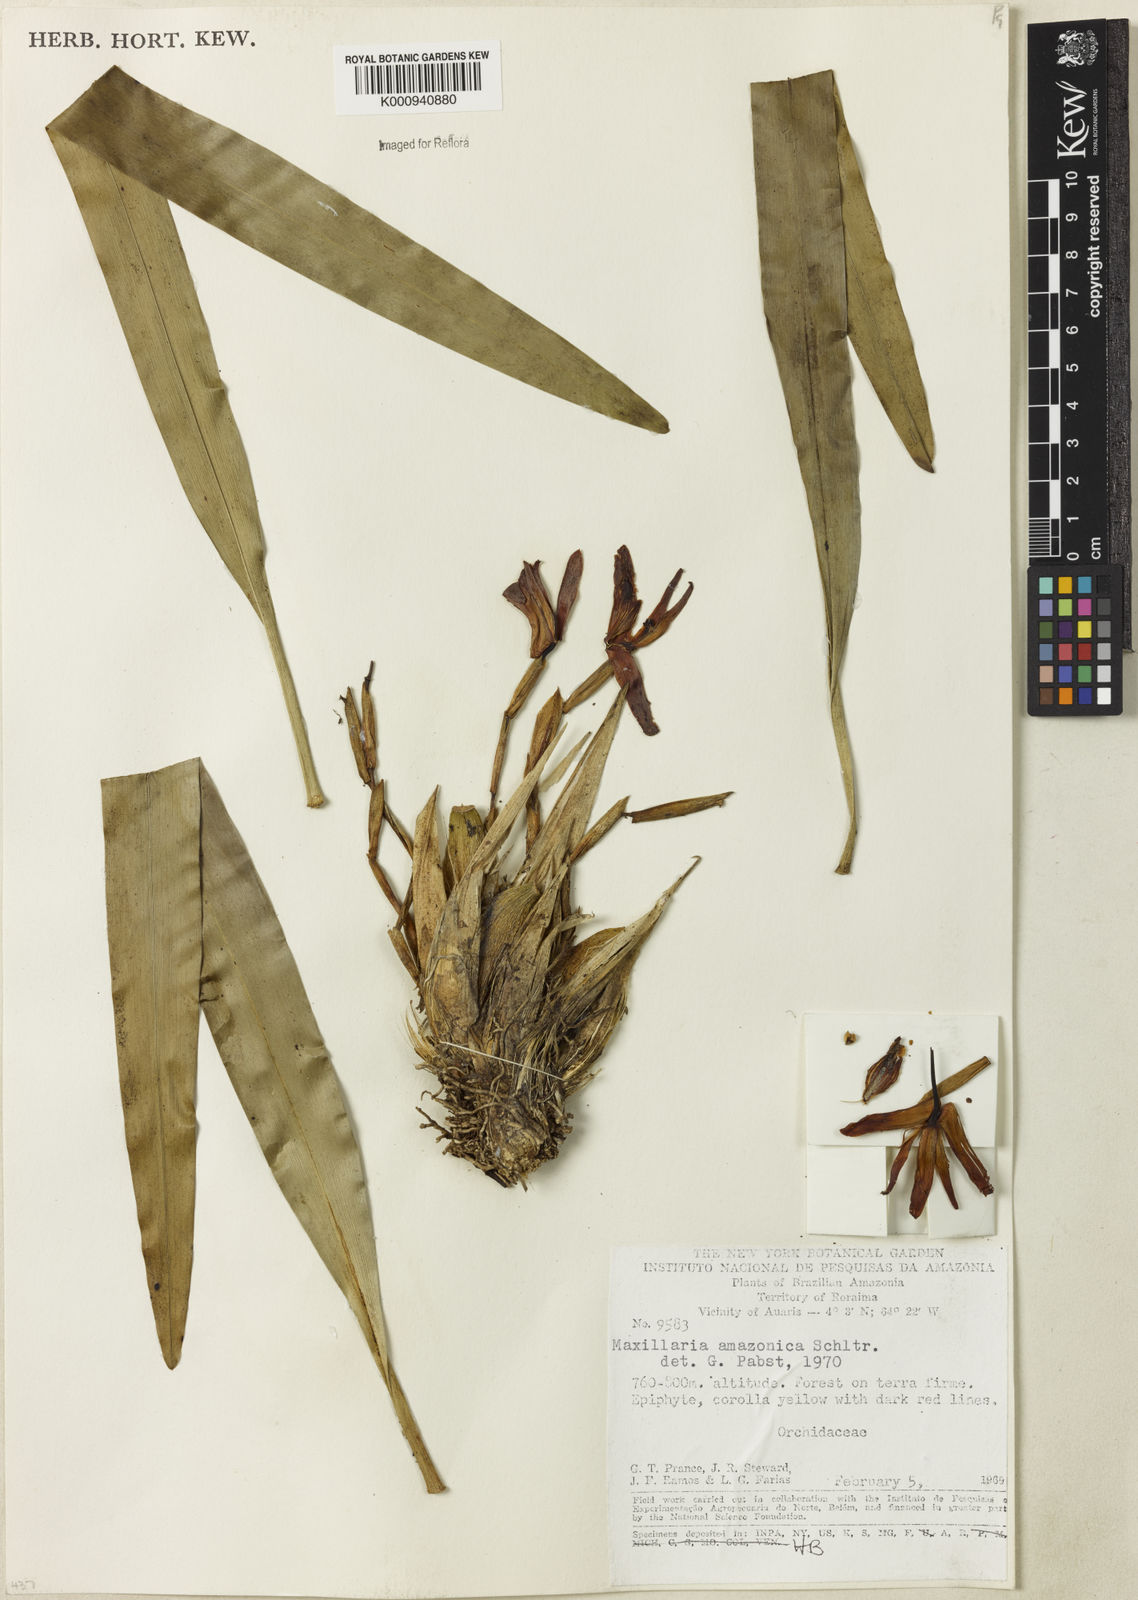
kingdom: Plantae
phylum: Tracheophyta
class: Liliopsida
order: Asparagales
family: Orchidaceae
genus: Maxillaria
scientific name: Maxillaria kegelii
